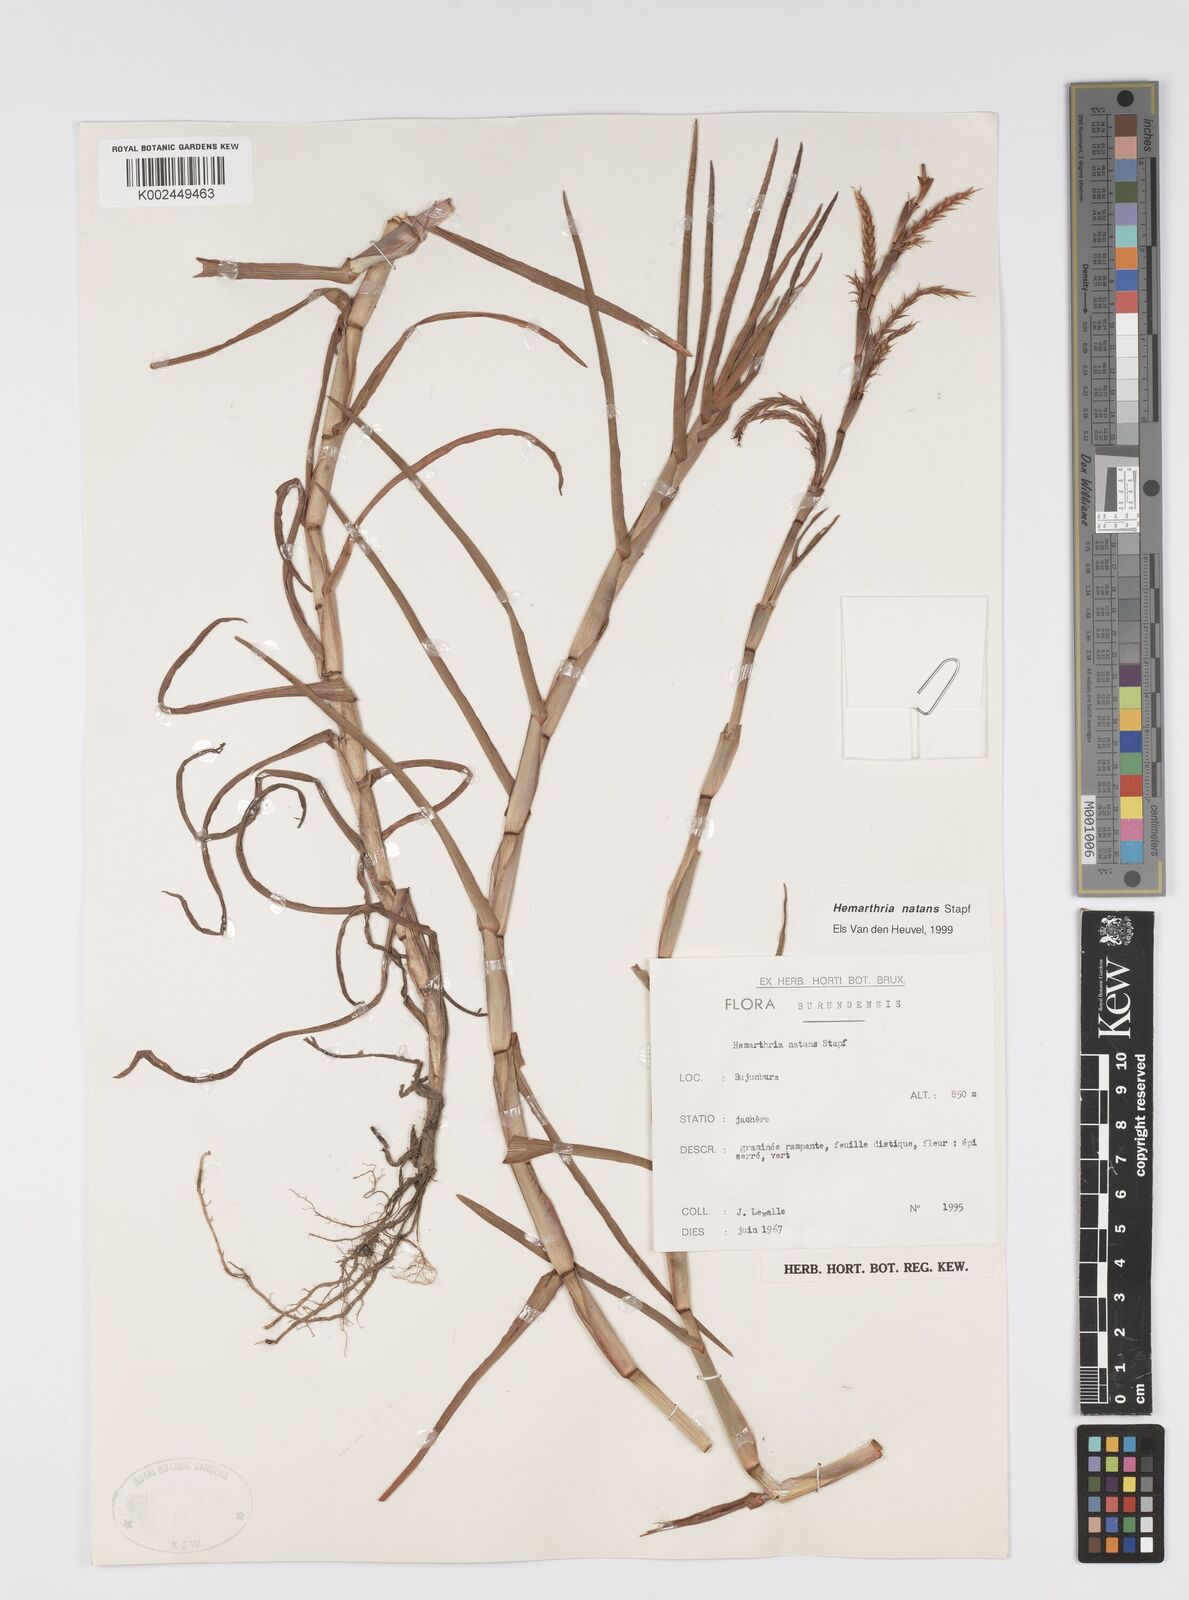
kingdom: Plantae
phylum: Tracheophyta
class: Liliopsida
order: Poales
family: Poaceae
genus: Hemarthria
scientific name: Hemarthria natans
